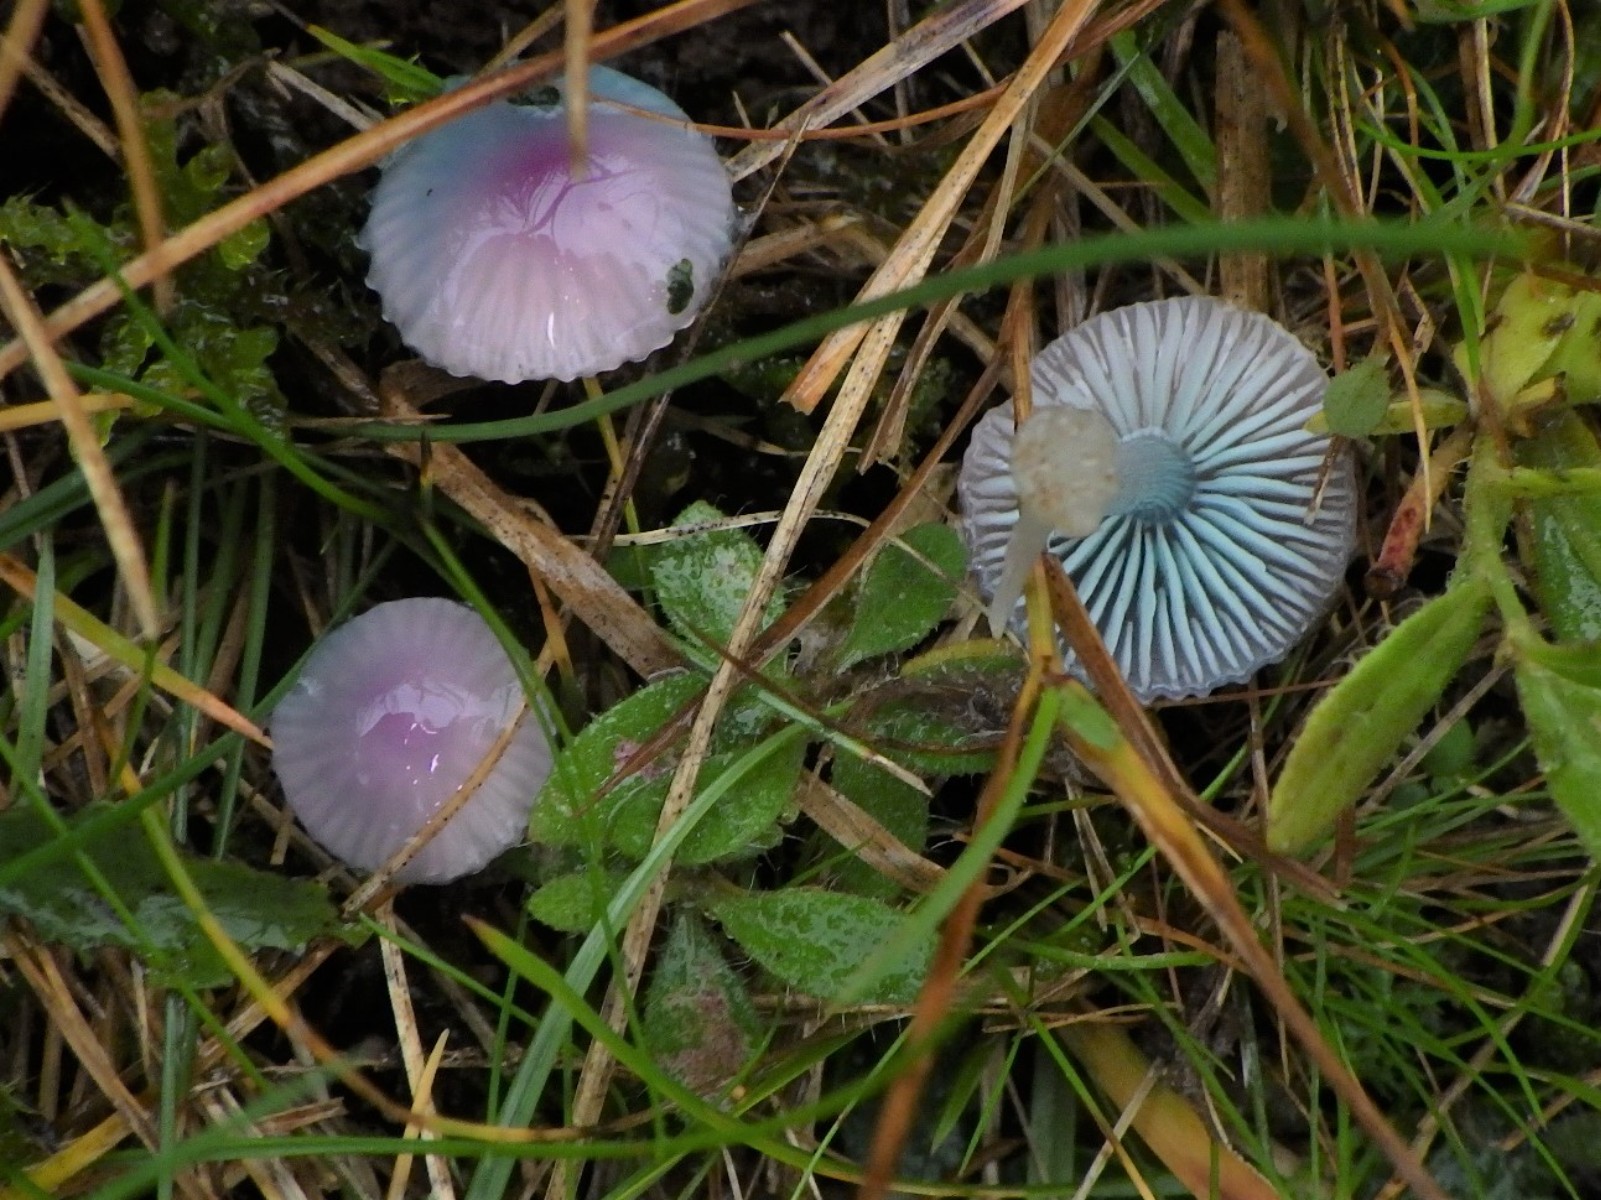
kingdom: Fungi
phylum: Basidiomycota
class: Agaricomycetes
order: Agaricales
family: Hygrophoraceae
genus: Gliophorus
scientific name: Gliophorus psittacinus
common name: papegøje-vokshat
